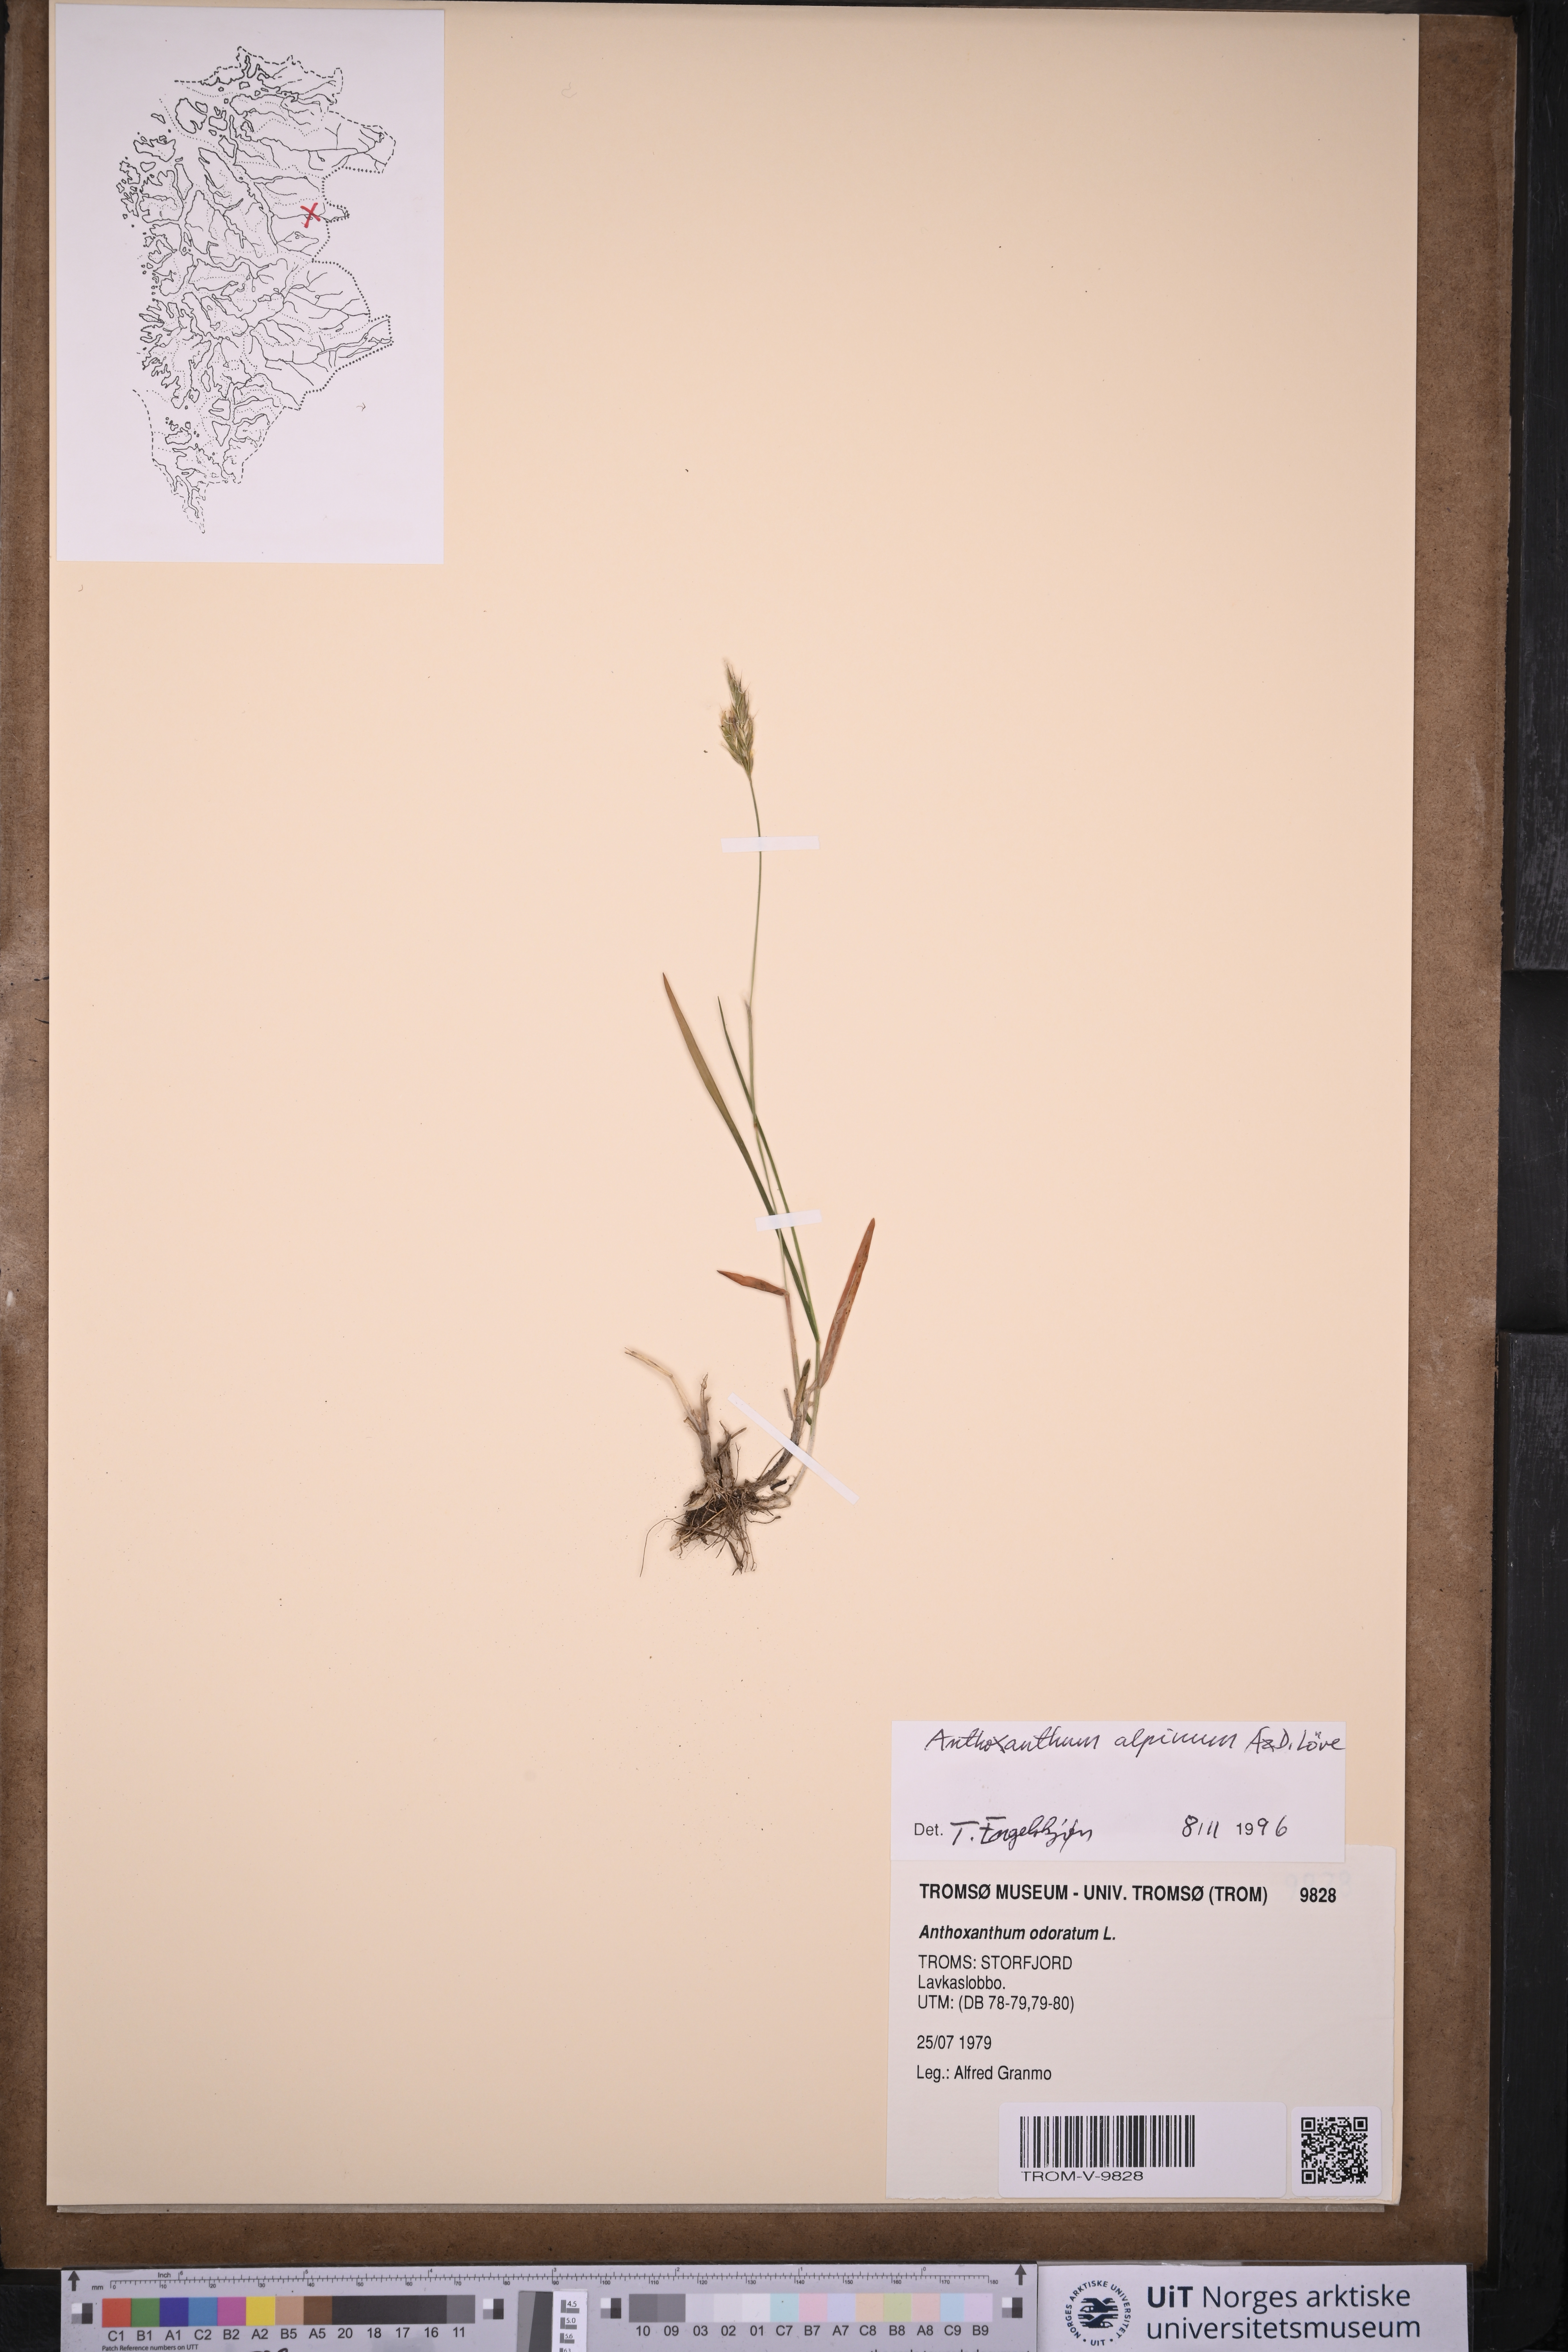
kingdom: Plantae
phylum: Tracheophyta
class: Liliopsida
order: Poales
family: Poaceae
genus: Anthoxanthum
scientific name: Anthoxanthum nipponicum
